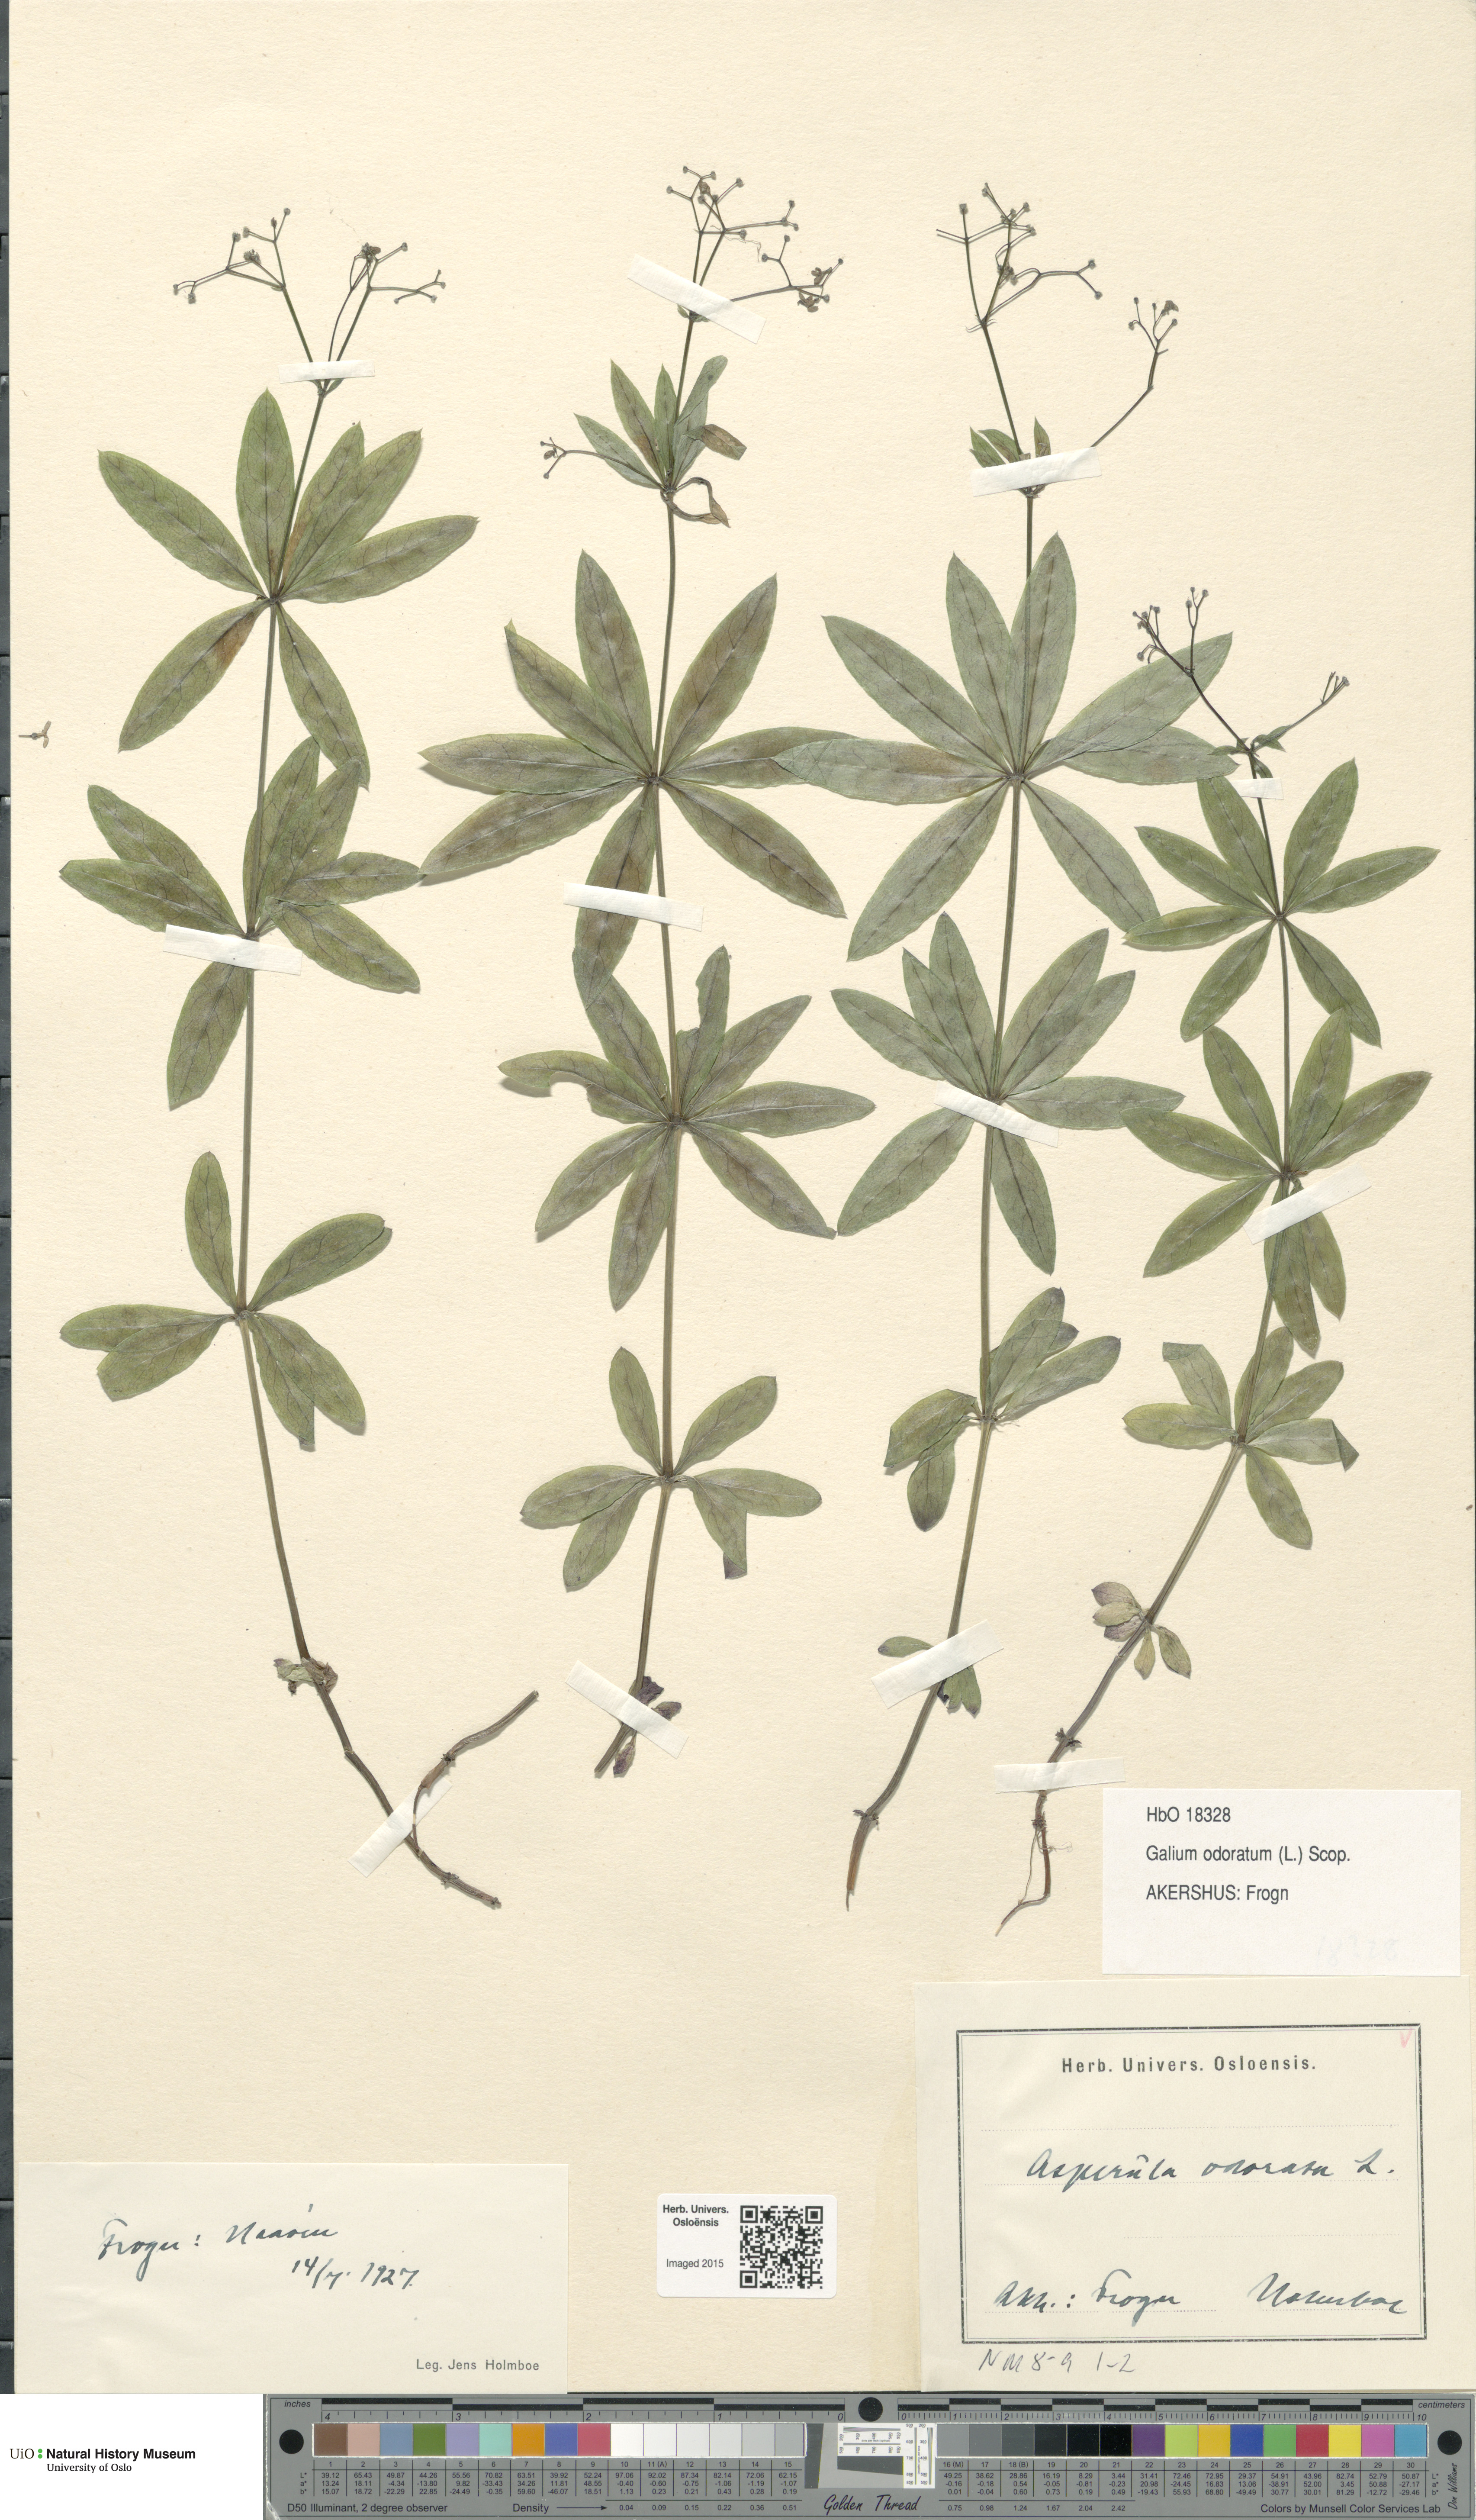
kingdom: Plantae
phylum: Tracheophyta
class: Magnoliopsida
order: Gentianales
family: Rubiaceae
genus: Galium
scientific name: Galium odoratum
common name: Sweet woodruff
